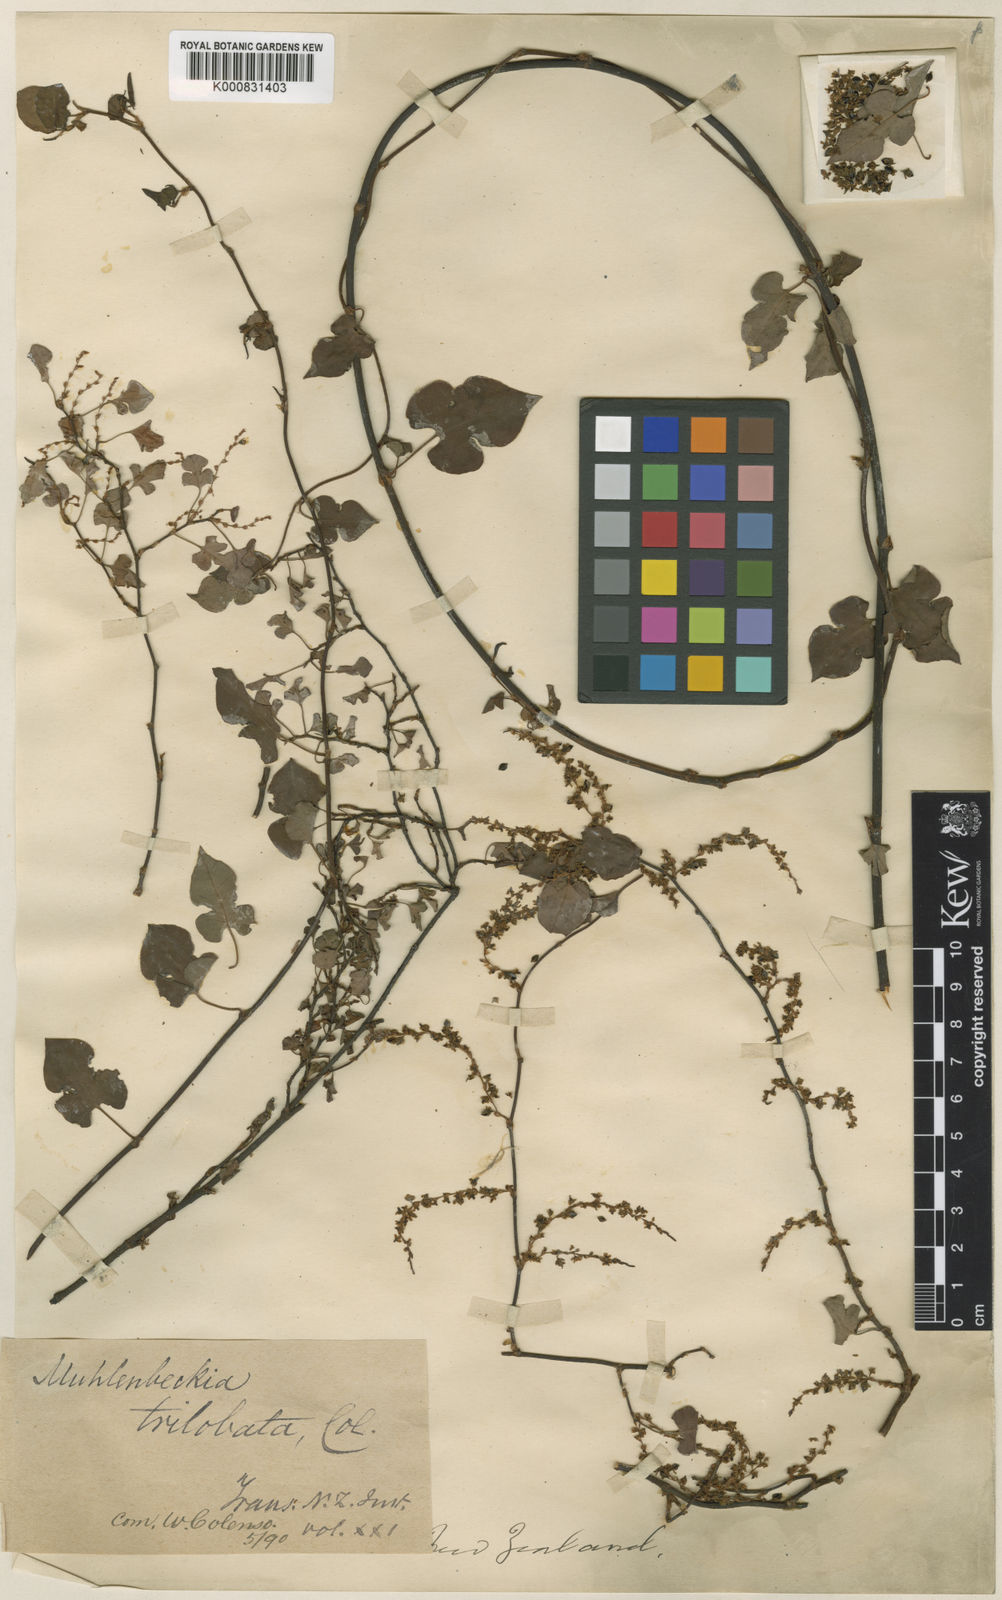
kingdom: Plantae
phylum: Tracheophyta
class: Magnoliopsida
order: Caryophyllales
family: Polygonaceae
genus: Muehlenbeckia
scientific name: Muehlenbeckia complexa
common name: Wireplant
